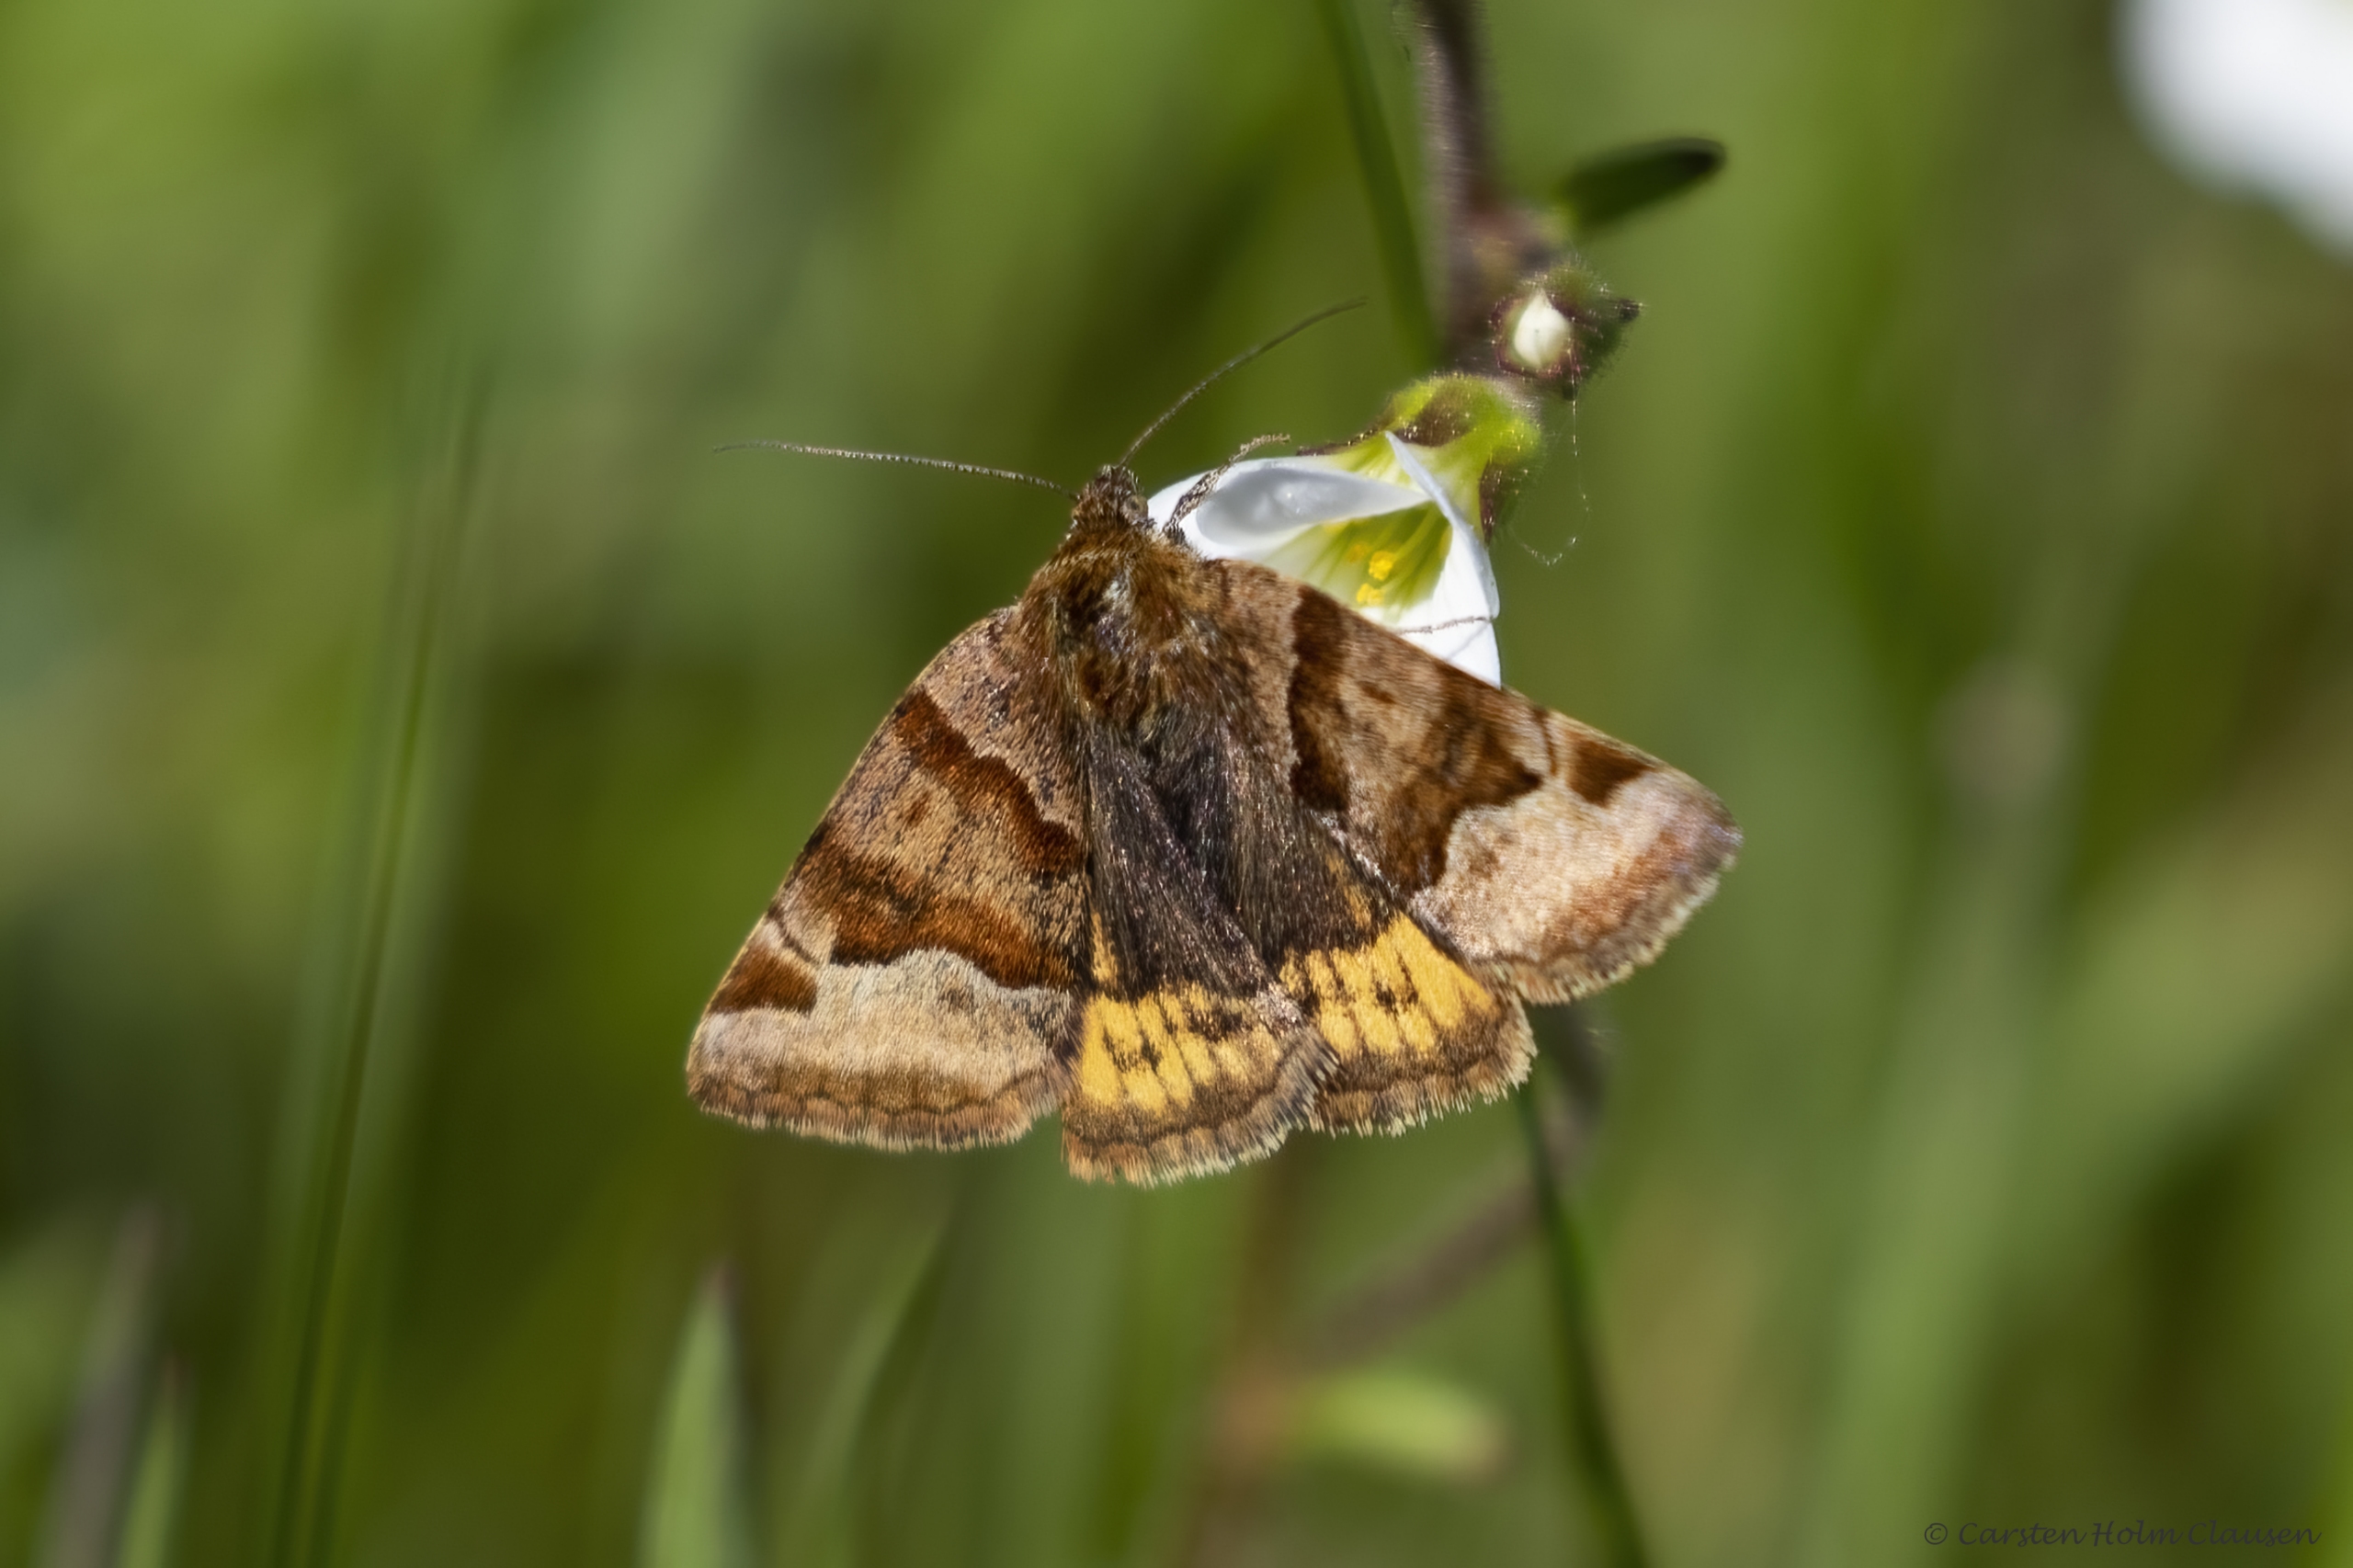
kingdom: Animalia
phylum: Arthropoda
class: Insecta
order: Lepidoptera
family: Erebidae
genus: Euclidia
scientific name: Euclidia glyphica
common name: Brun kløverugle
